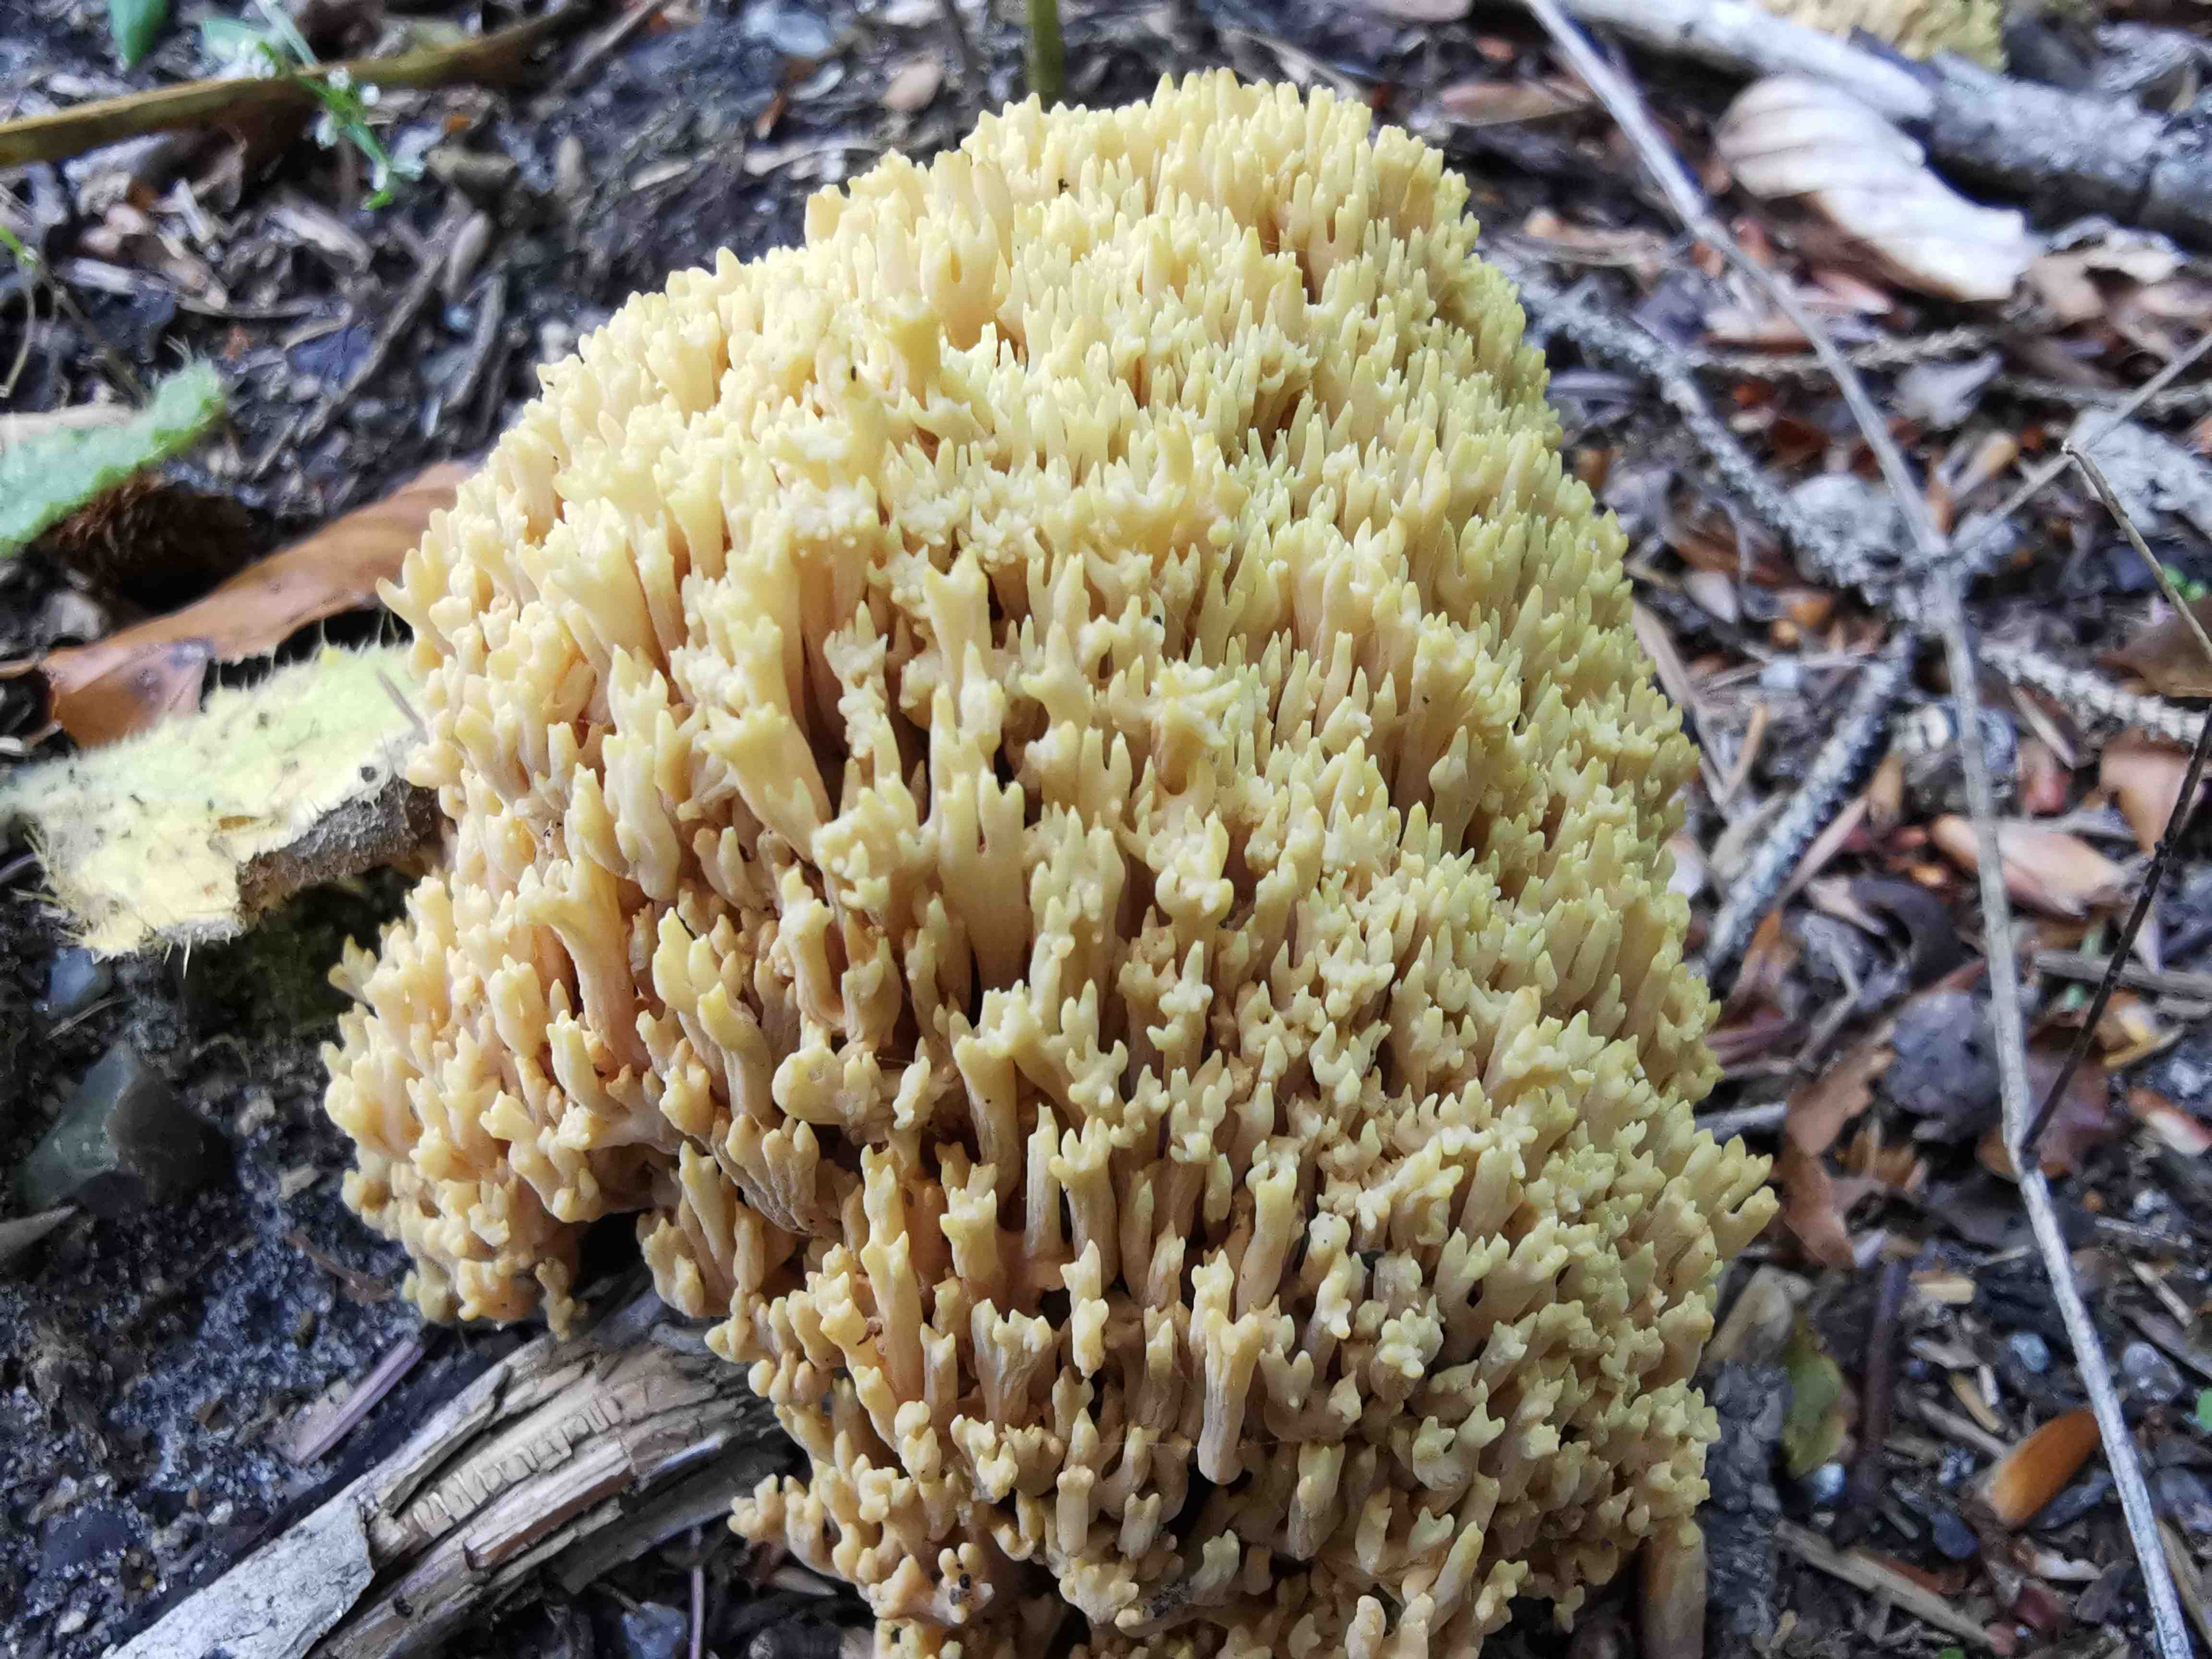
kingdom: Fungi
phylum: Basidiomycota
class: Agaricomycetes
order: Gomphales
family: Gomphaceae
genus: Ramaria
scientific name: Ramaria stricta
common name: rank koralsvamp
